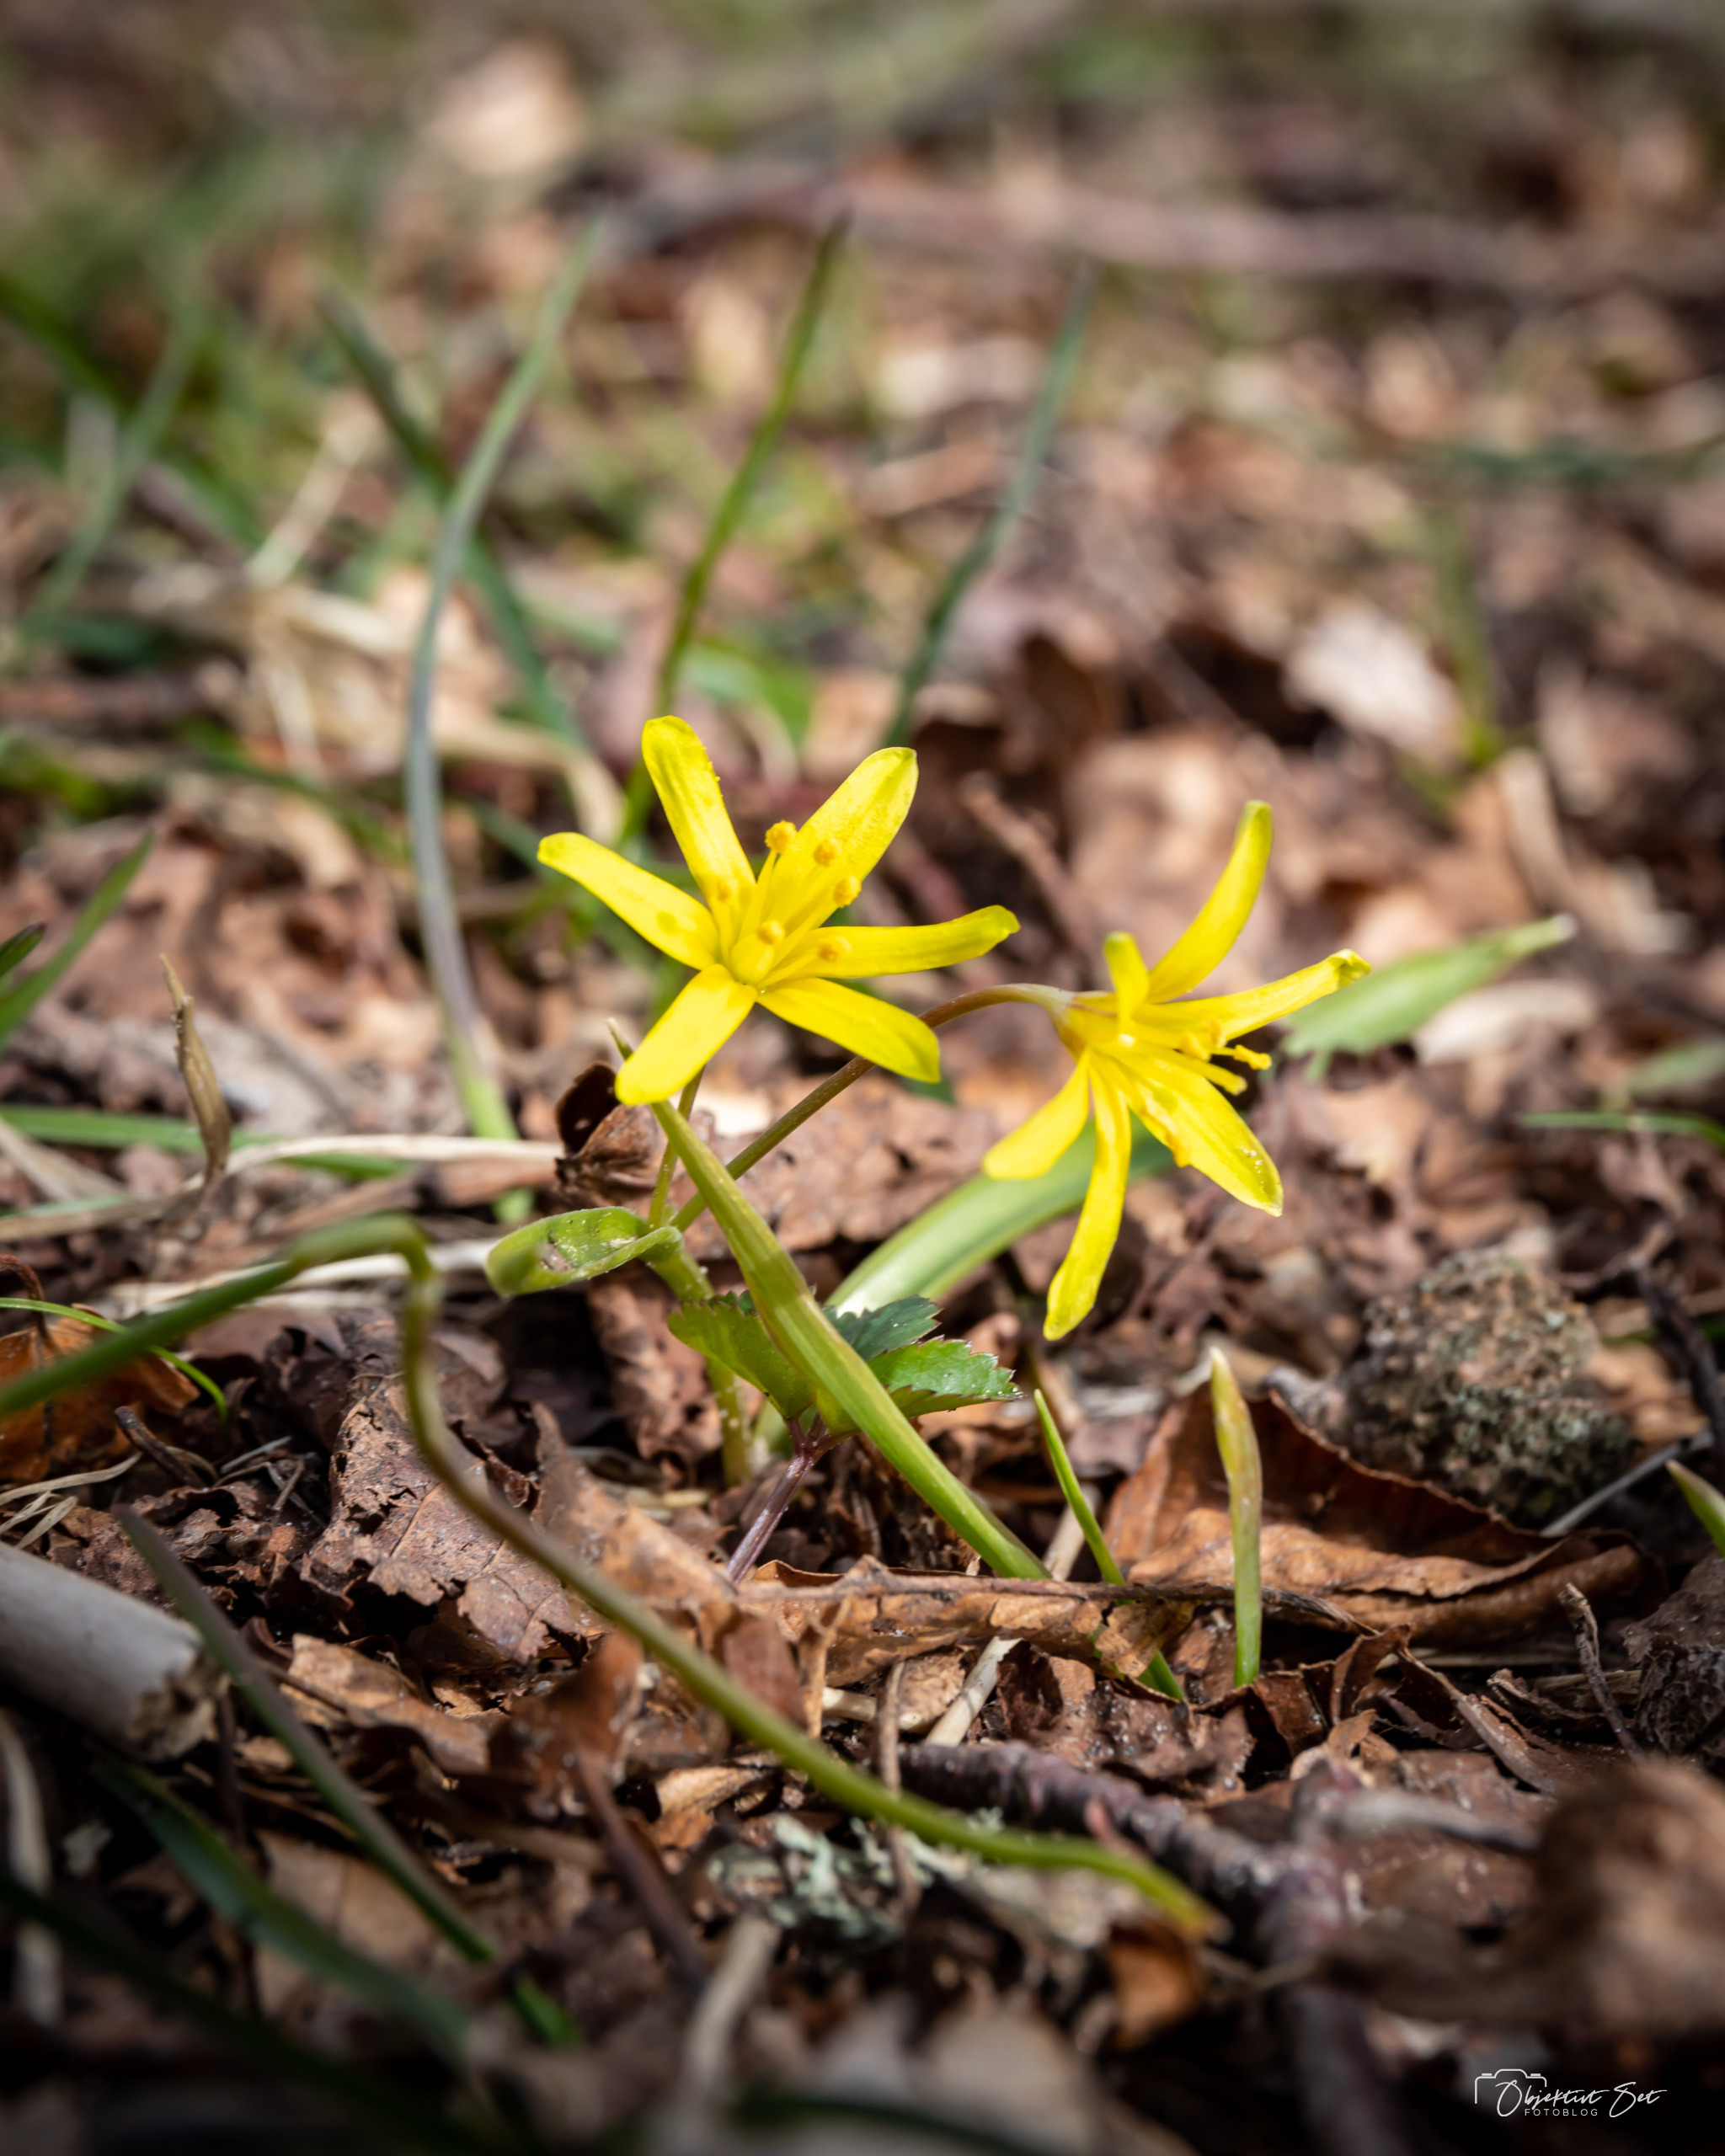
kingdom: Plantae
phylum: Tracheophyta
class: Liliopsida
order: Liliales
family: Liliaceae
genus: Gagea
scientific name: Gagea lutea
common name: Almindelig guldstjerne
